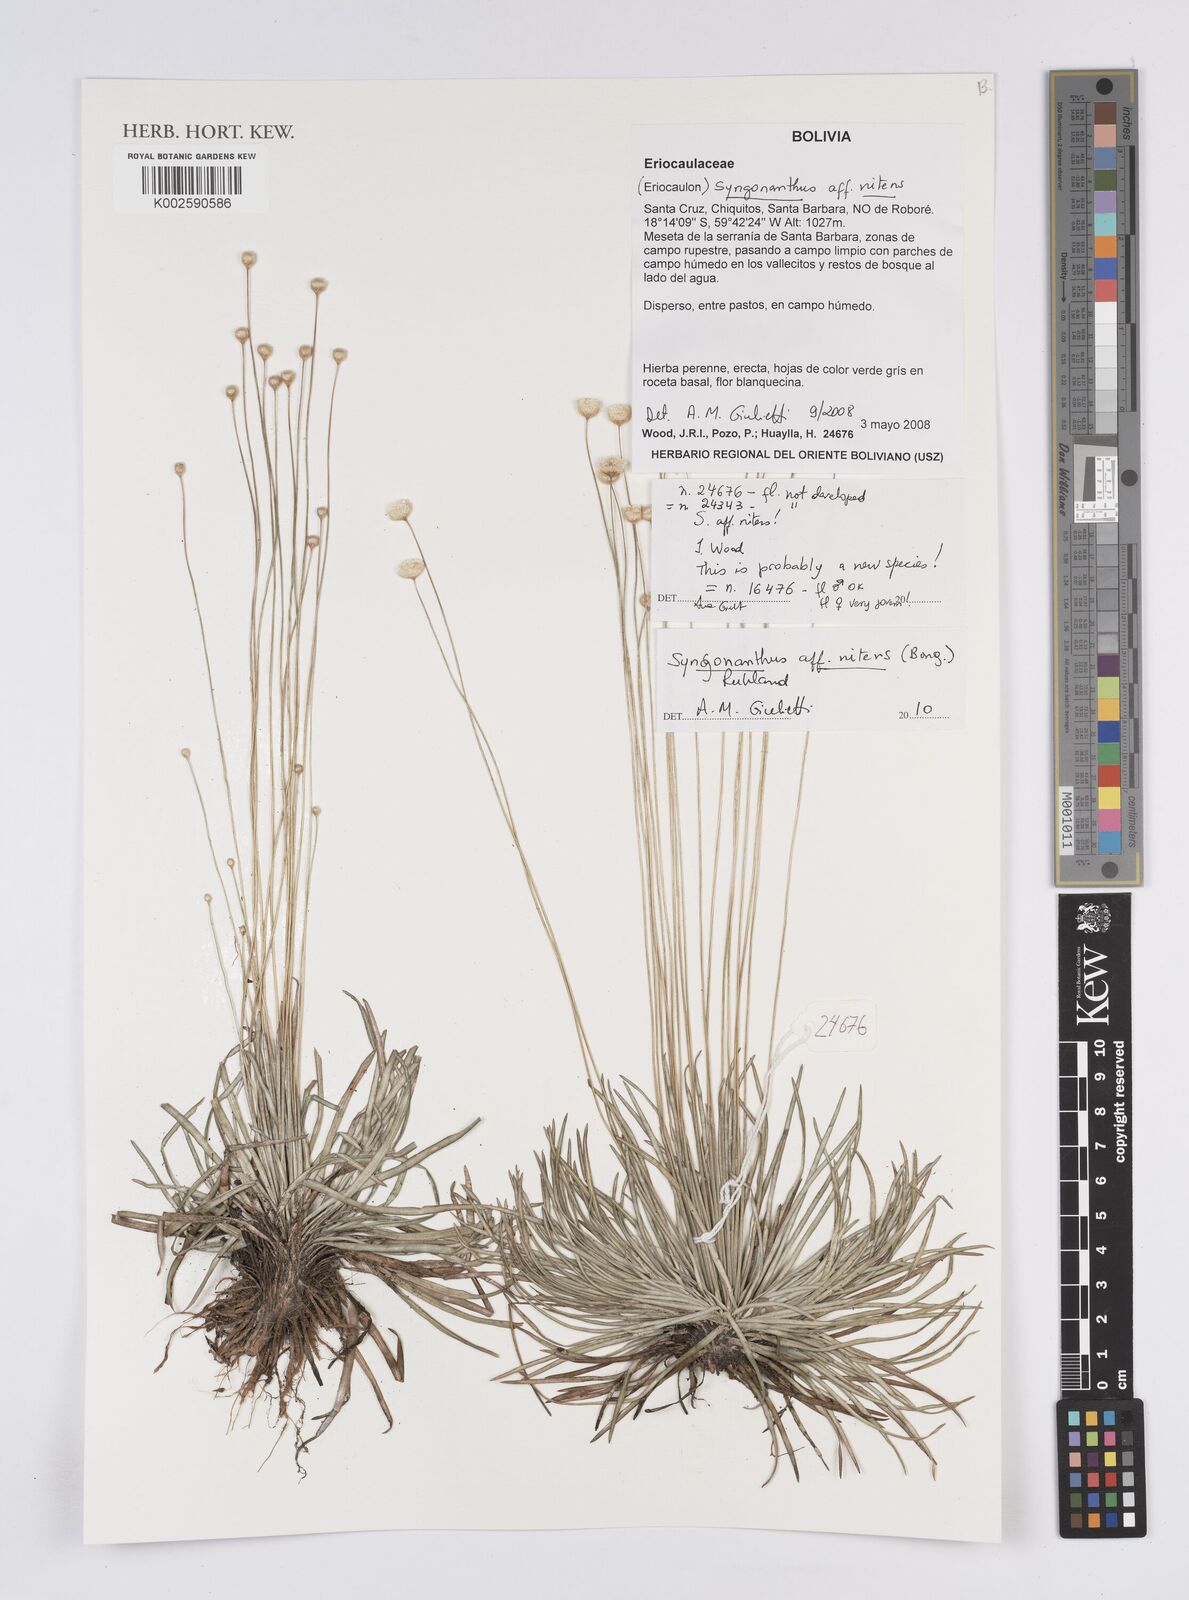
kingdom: Plantae
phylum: Tracheophyta
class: Liliopsida
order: Poales
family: Eriocaulaceae
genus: Syngonanthus
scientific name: Syngonanthus nitens
